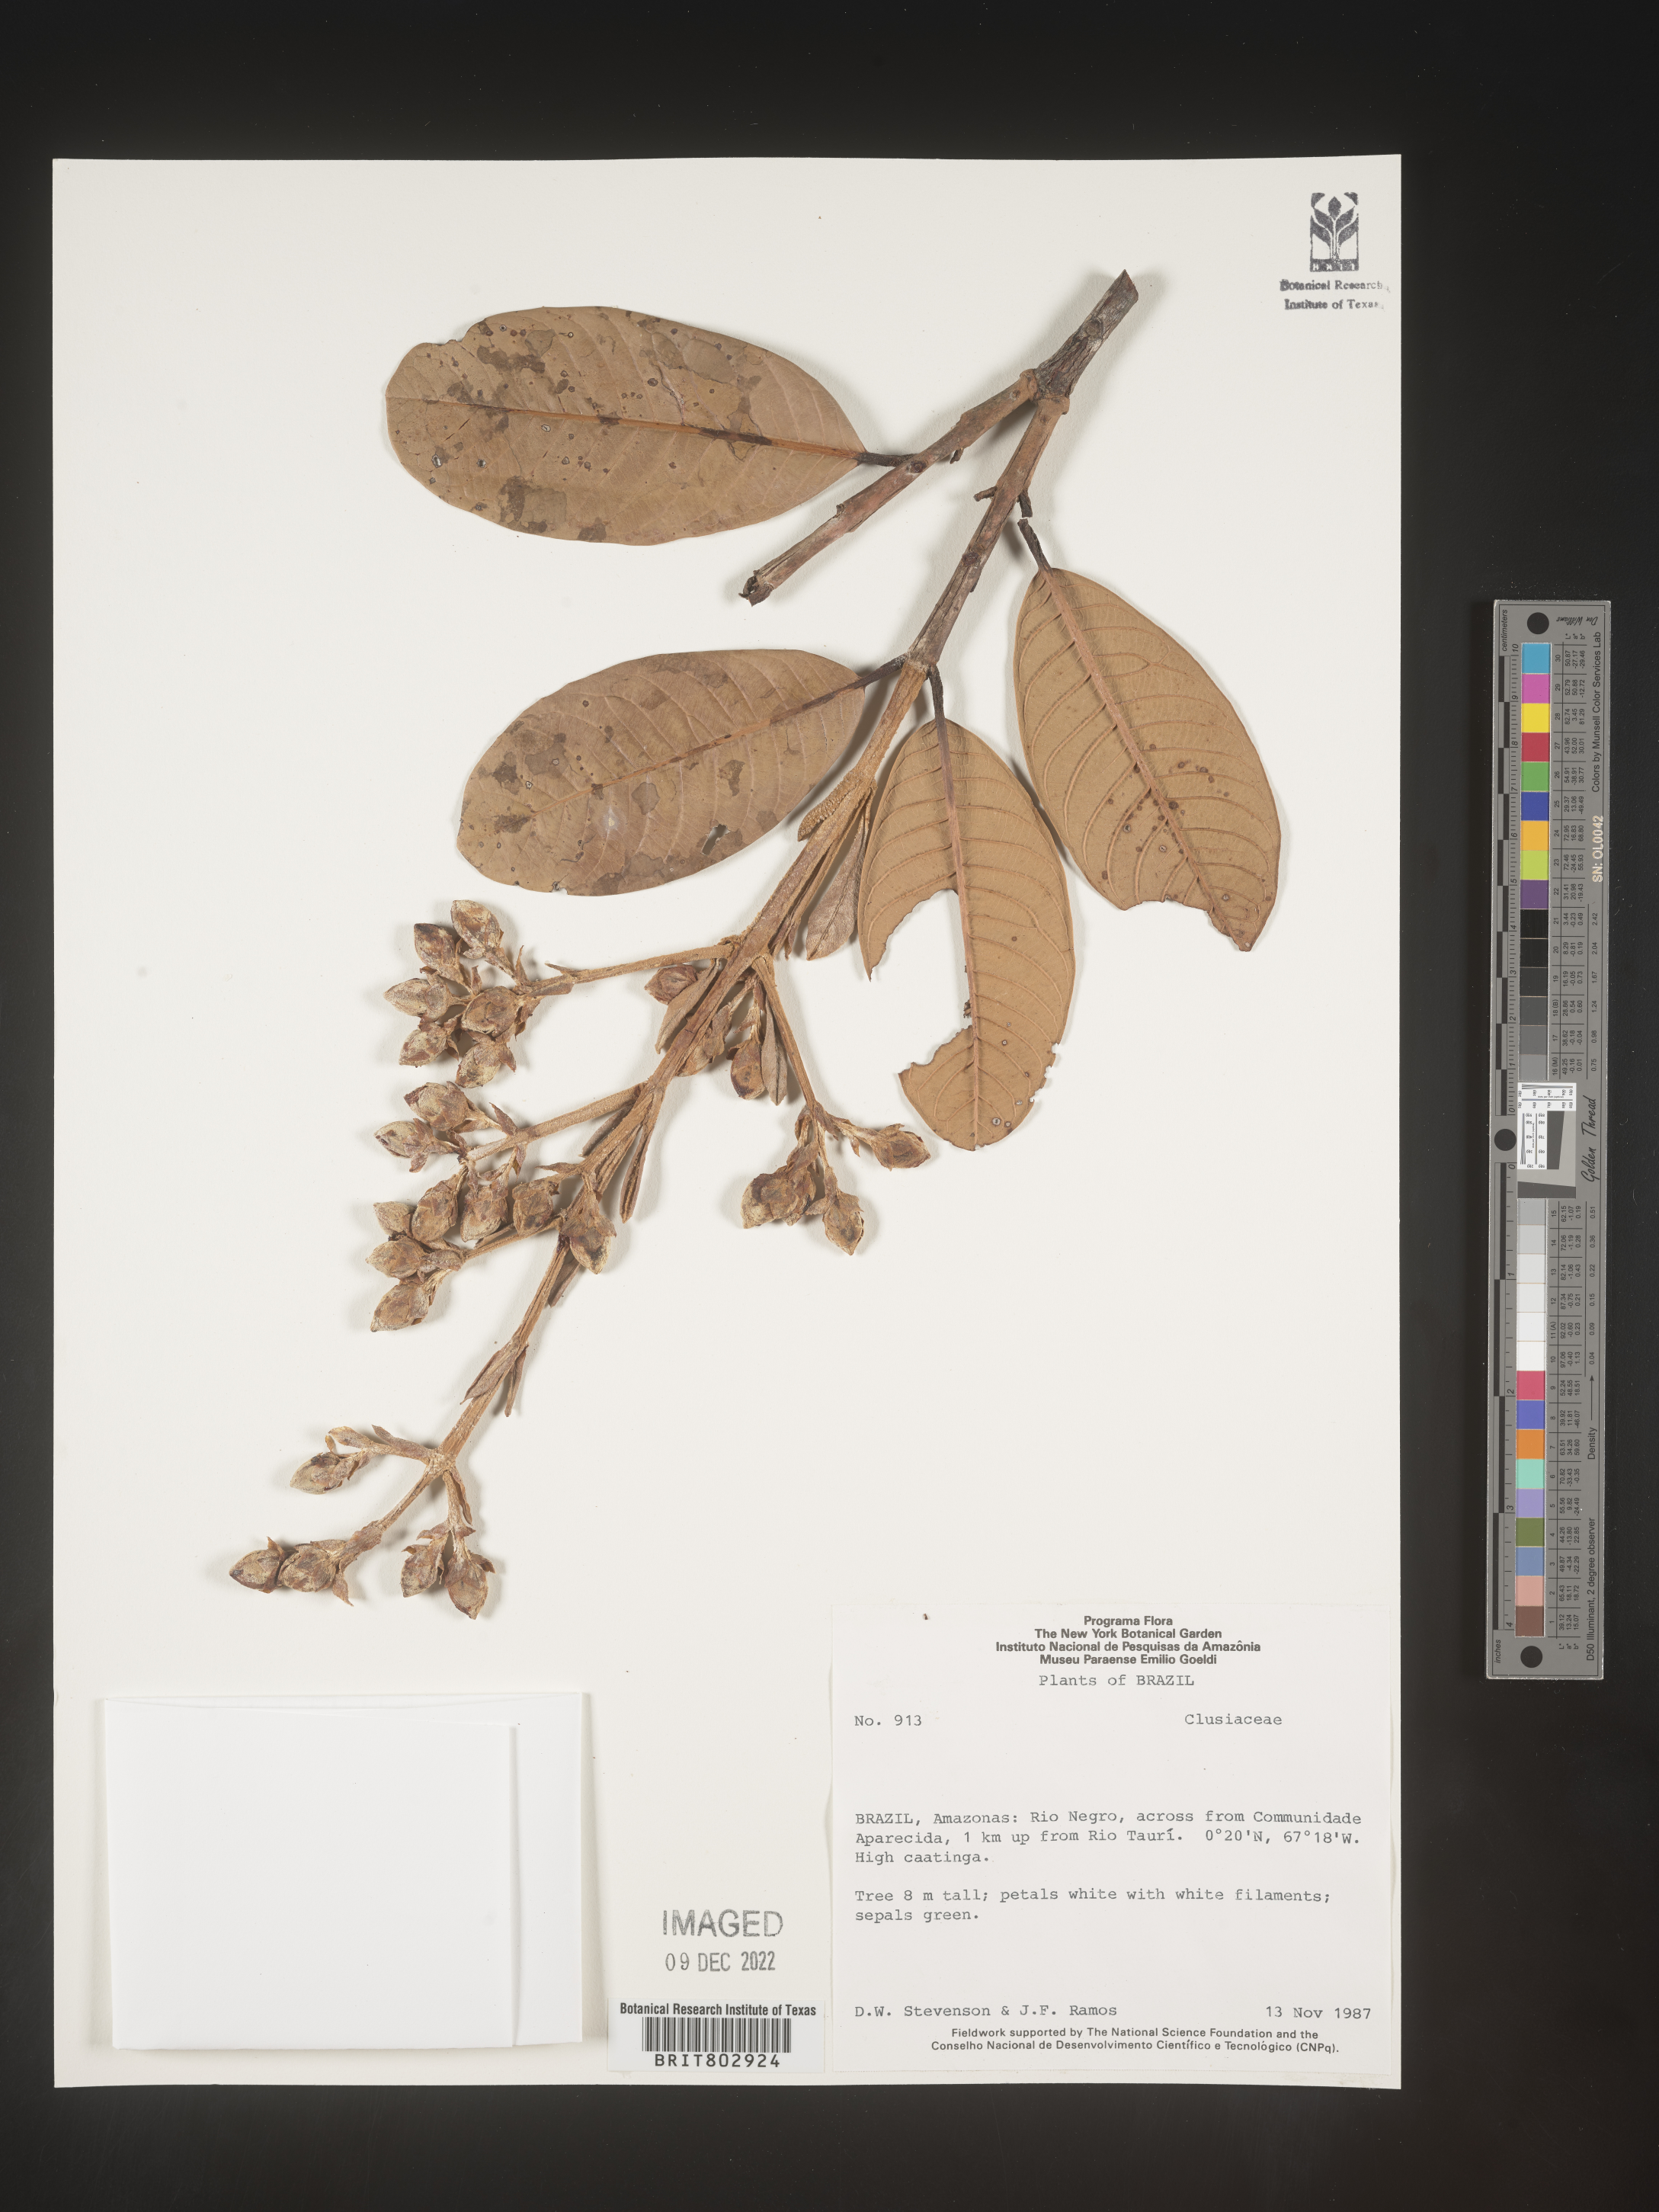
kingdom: Plantae
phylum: Tracheophyta
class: Magnoliopsida
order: Malpighiales
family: Calophyllaceae
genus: Kielmeyera
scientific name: Kielmeyera
